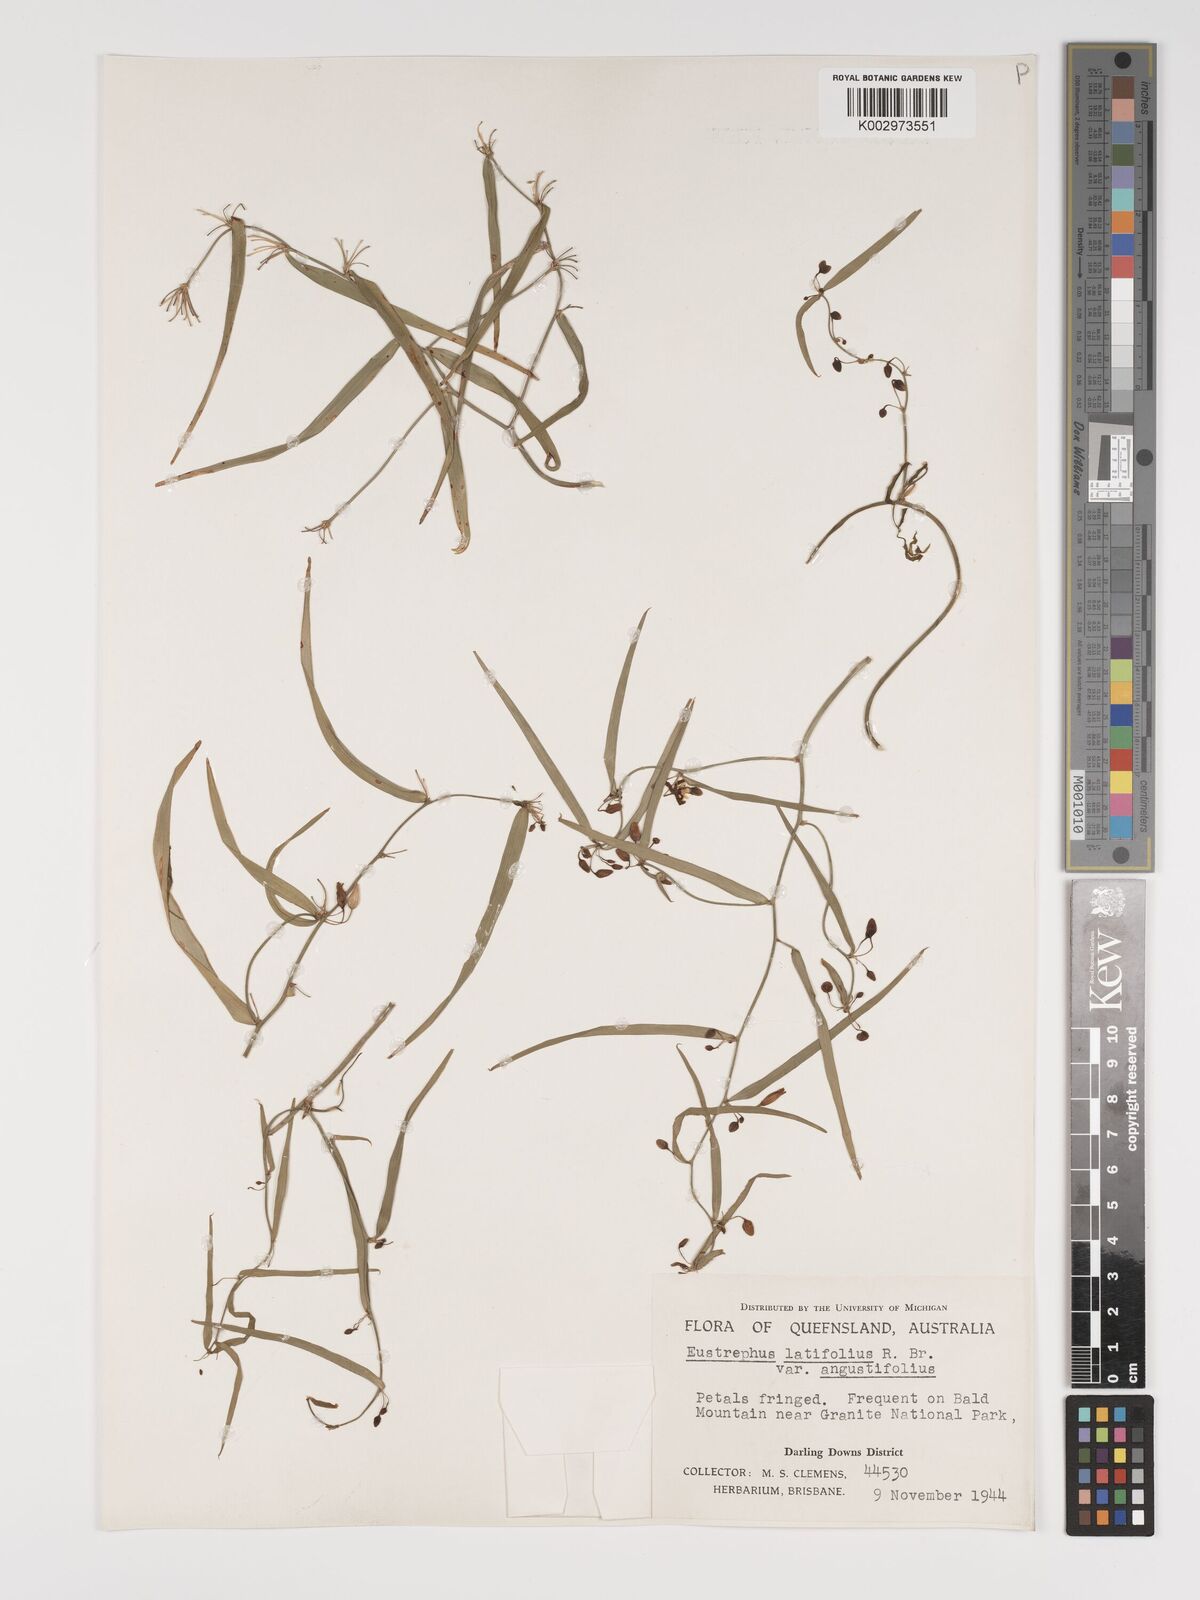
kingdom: Plantae
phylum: Tracheophyta
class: Liliopsida
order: Asparagales
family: Asparagaceae
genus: Eustrephus
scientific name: Eustrephus latifolius
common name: Orangevine
